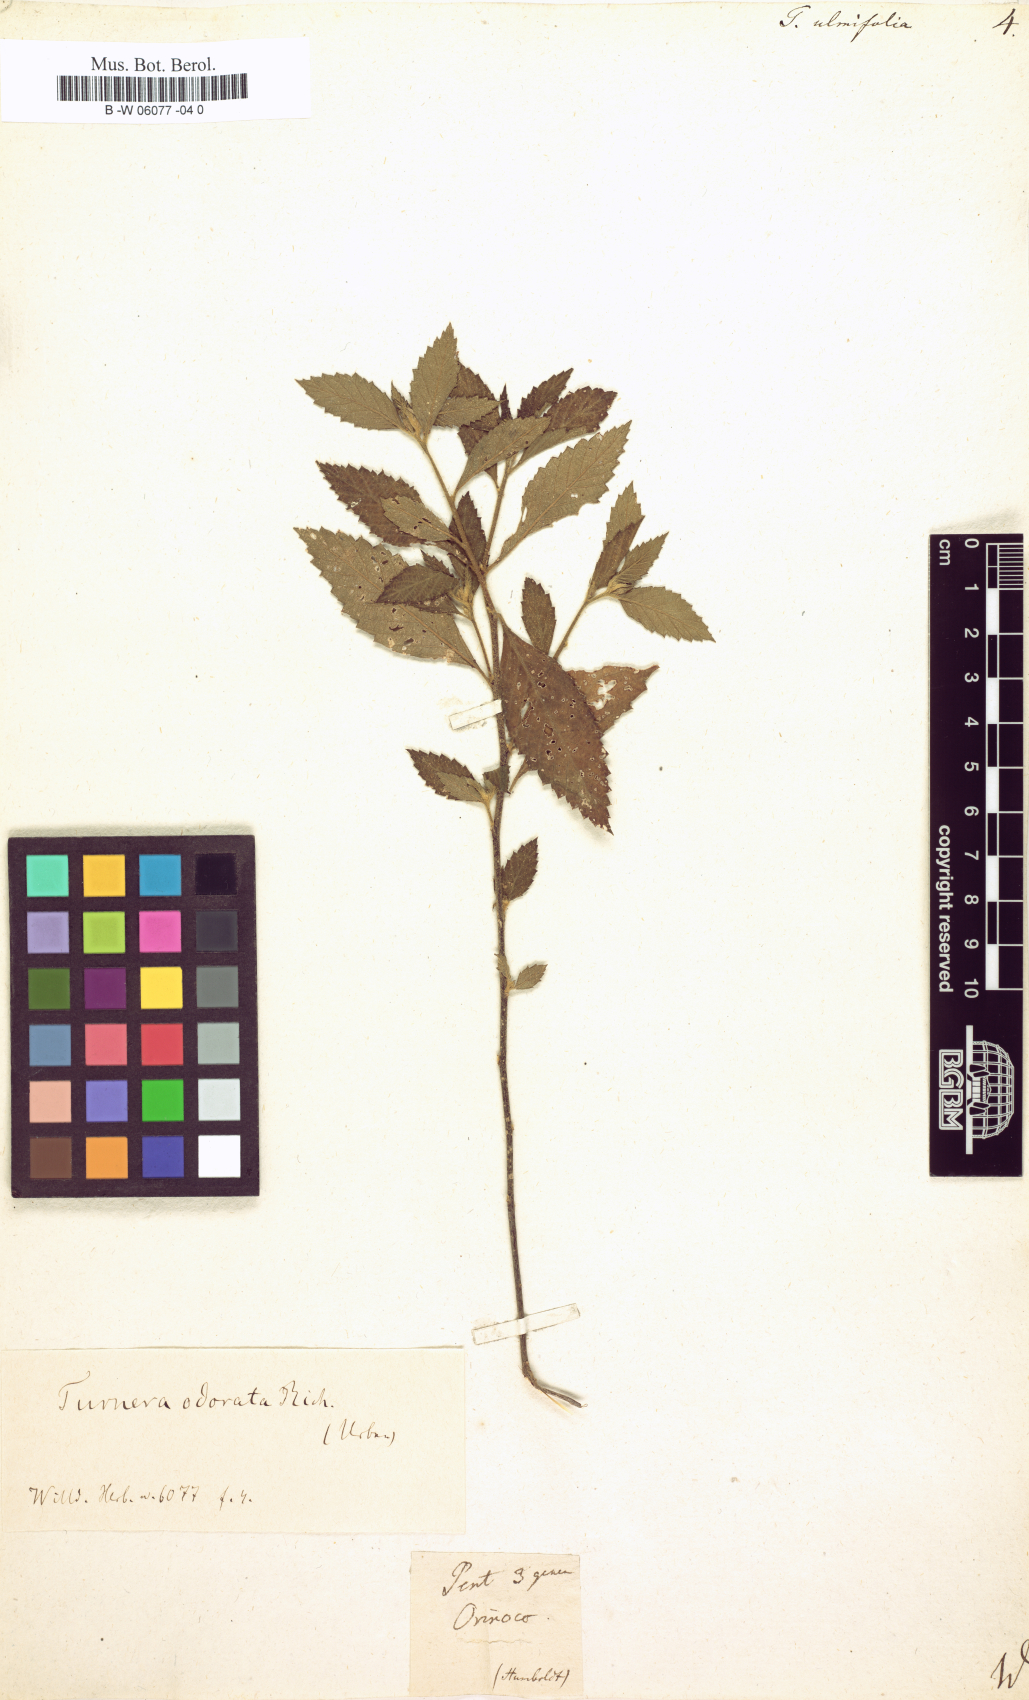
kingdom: Plantae
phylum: Tracheophyta
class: Magnoliopsida
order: Malpighiales
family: Turneraceae
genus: Turnera
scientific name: Turnera ulmifolia
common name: Ramgoat dashalong
